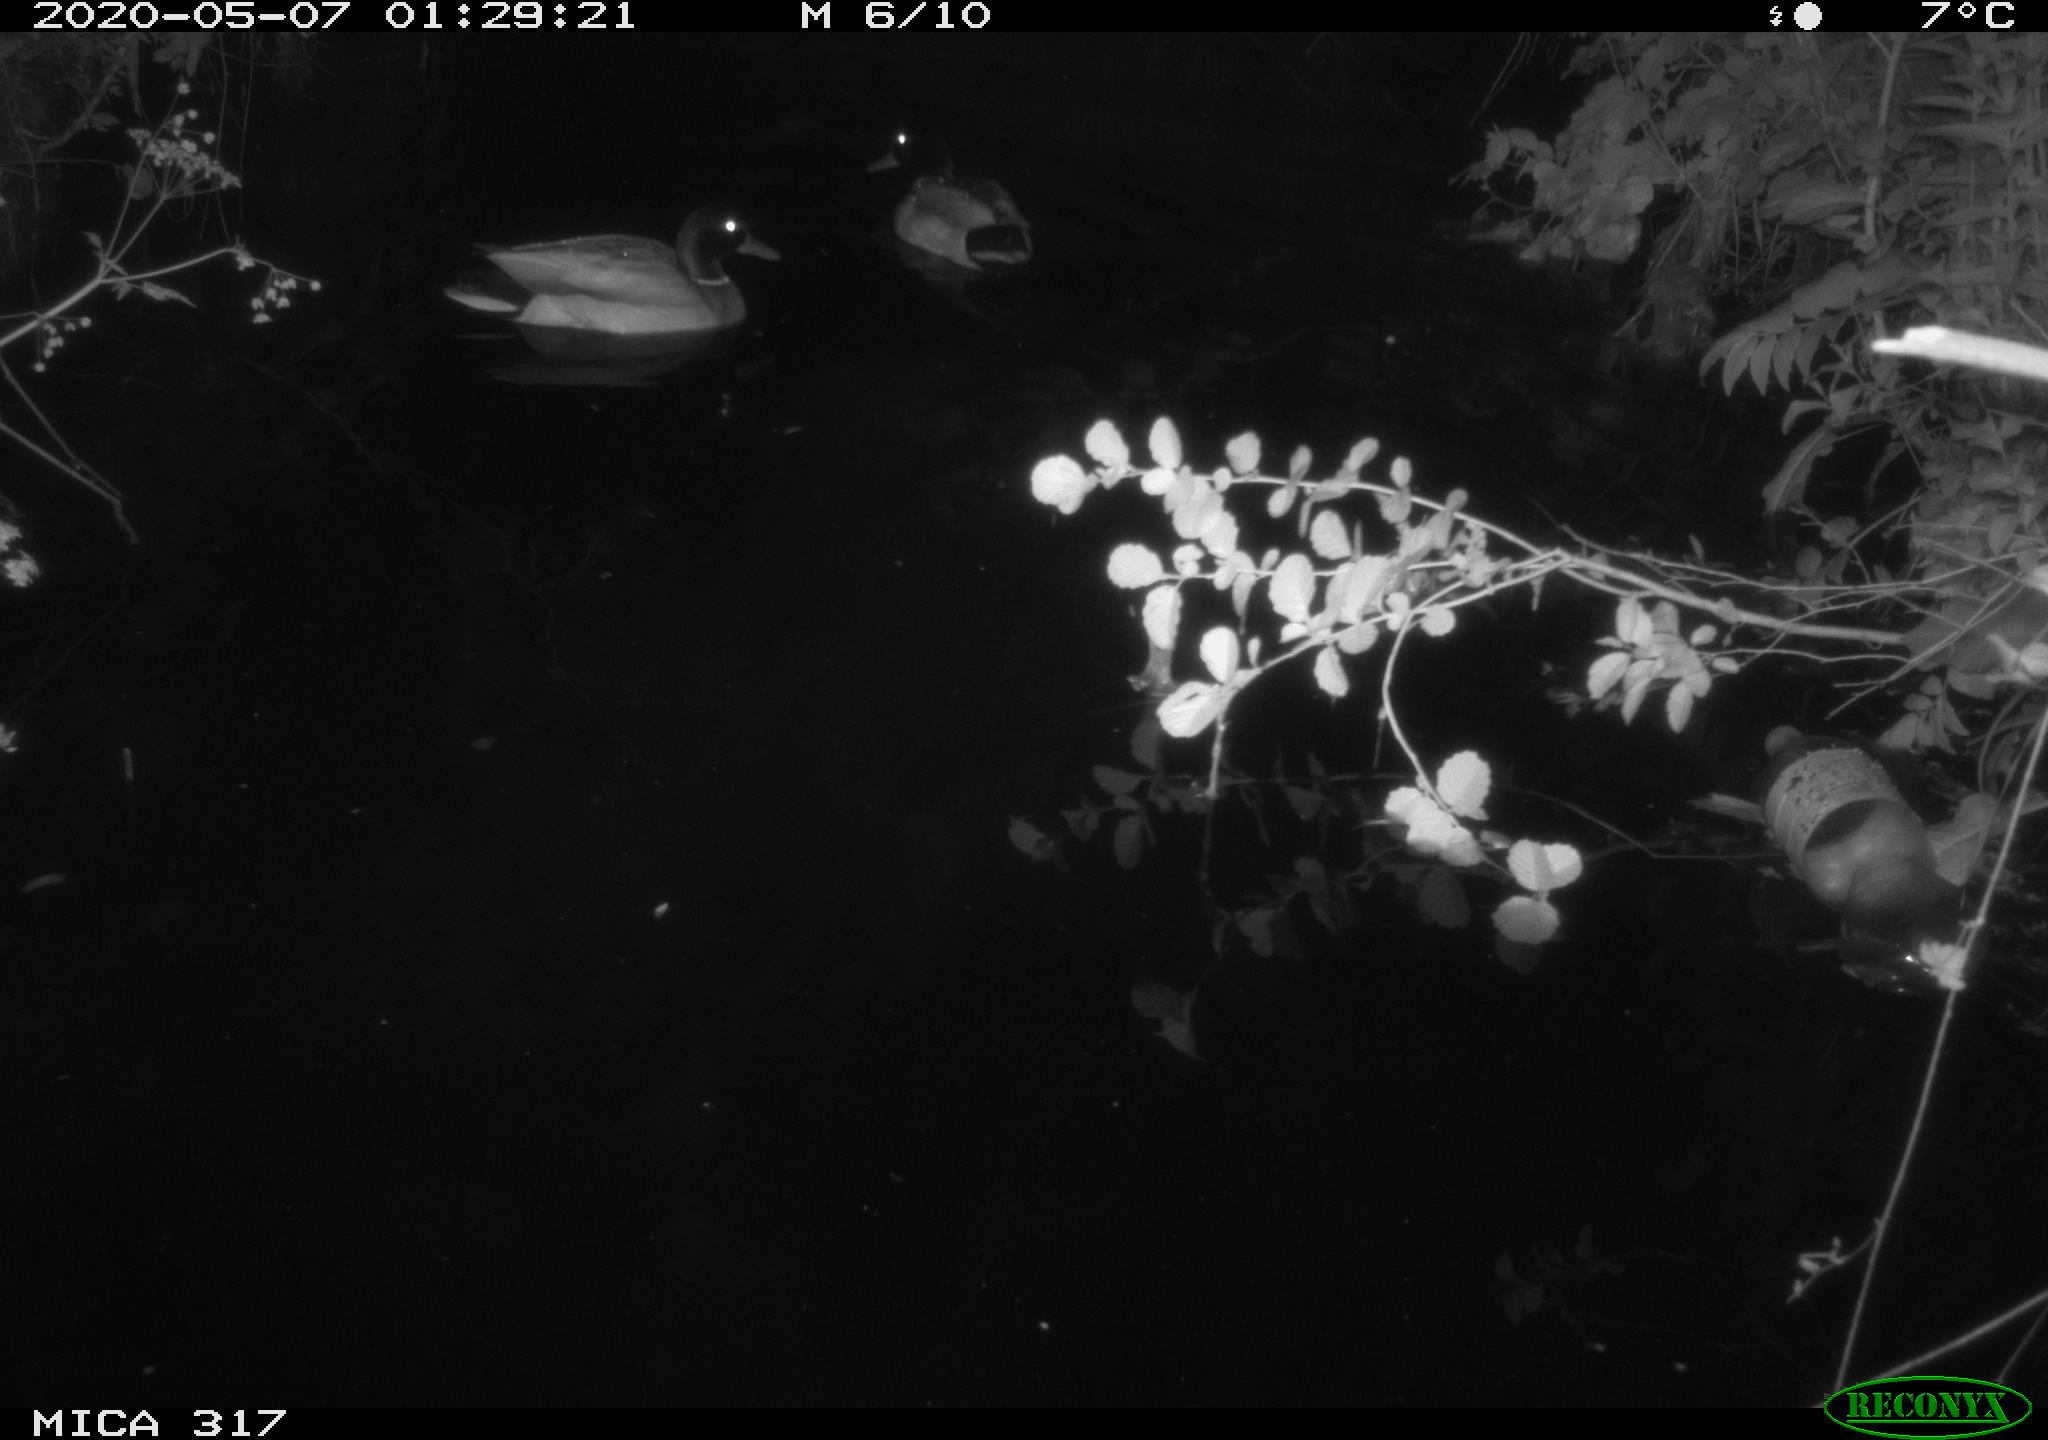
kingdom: Animalia
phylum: Chordata
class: Aves
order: Anseriformes
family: Anatidae
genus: Anas
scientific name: Anas platyrhynchos
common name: Mallard
